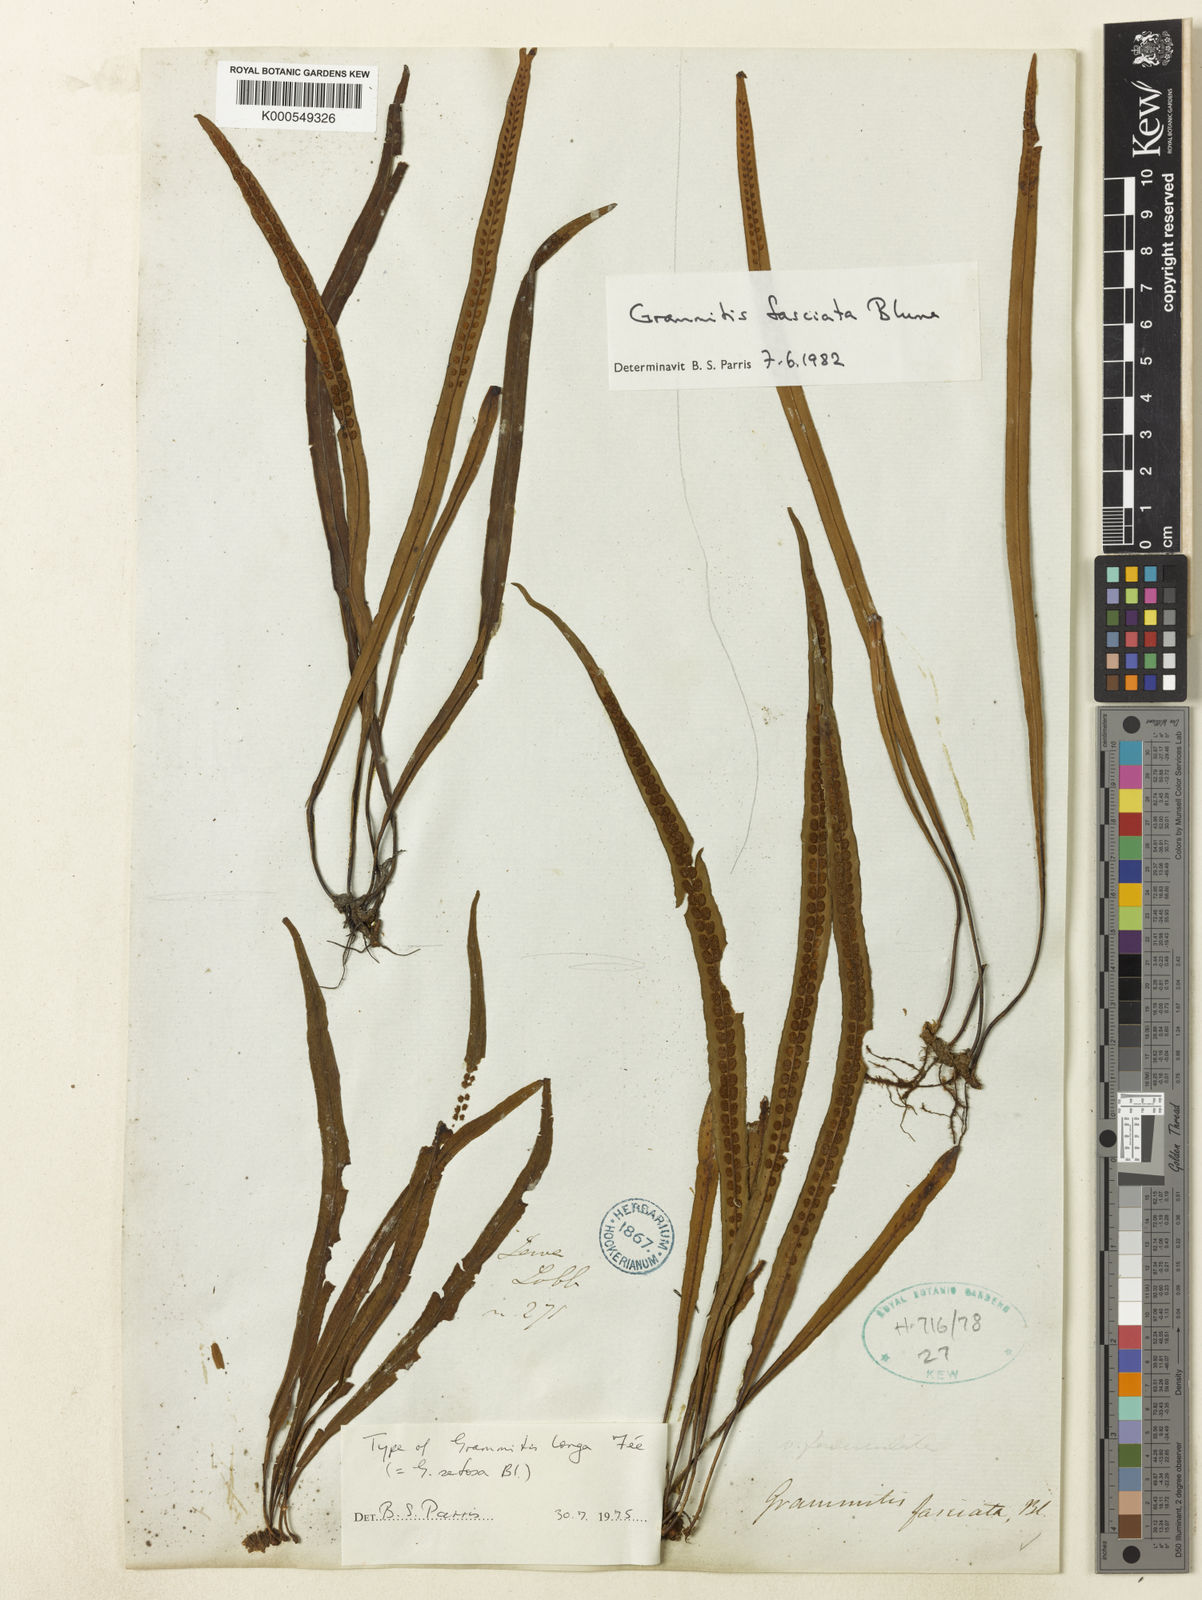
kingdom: Plantae
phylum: Tracheophyta
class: Polypodiopsida
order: Polypodiales
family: Polypodiaceae
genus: Oreogrammitis
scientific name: Oreogrammitis setosa
